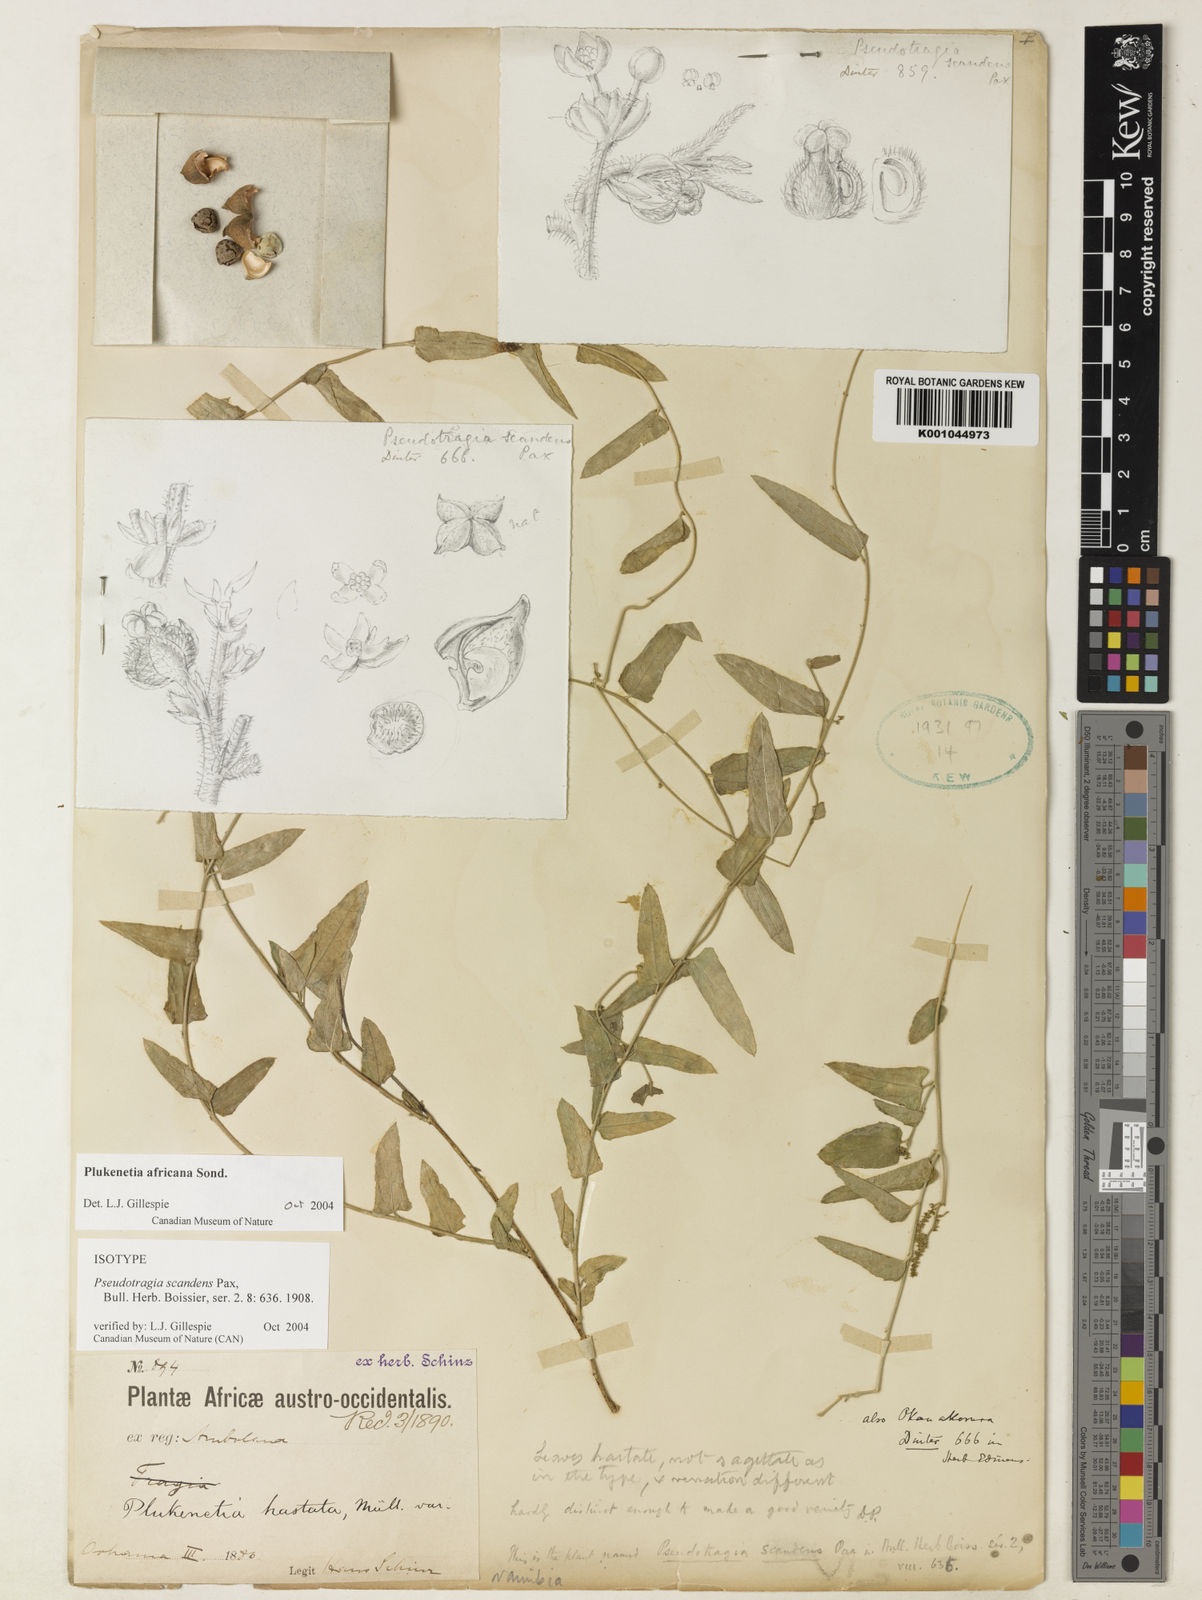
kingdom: Plantae
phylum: Tracheophyta
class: Magnoliopsida
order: Malpighiales
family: Euphorbiaceae
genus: Plukenetia
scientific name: Plukenetia africana
